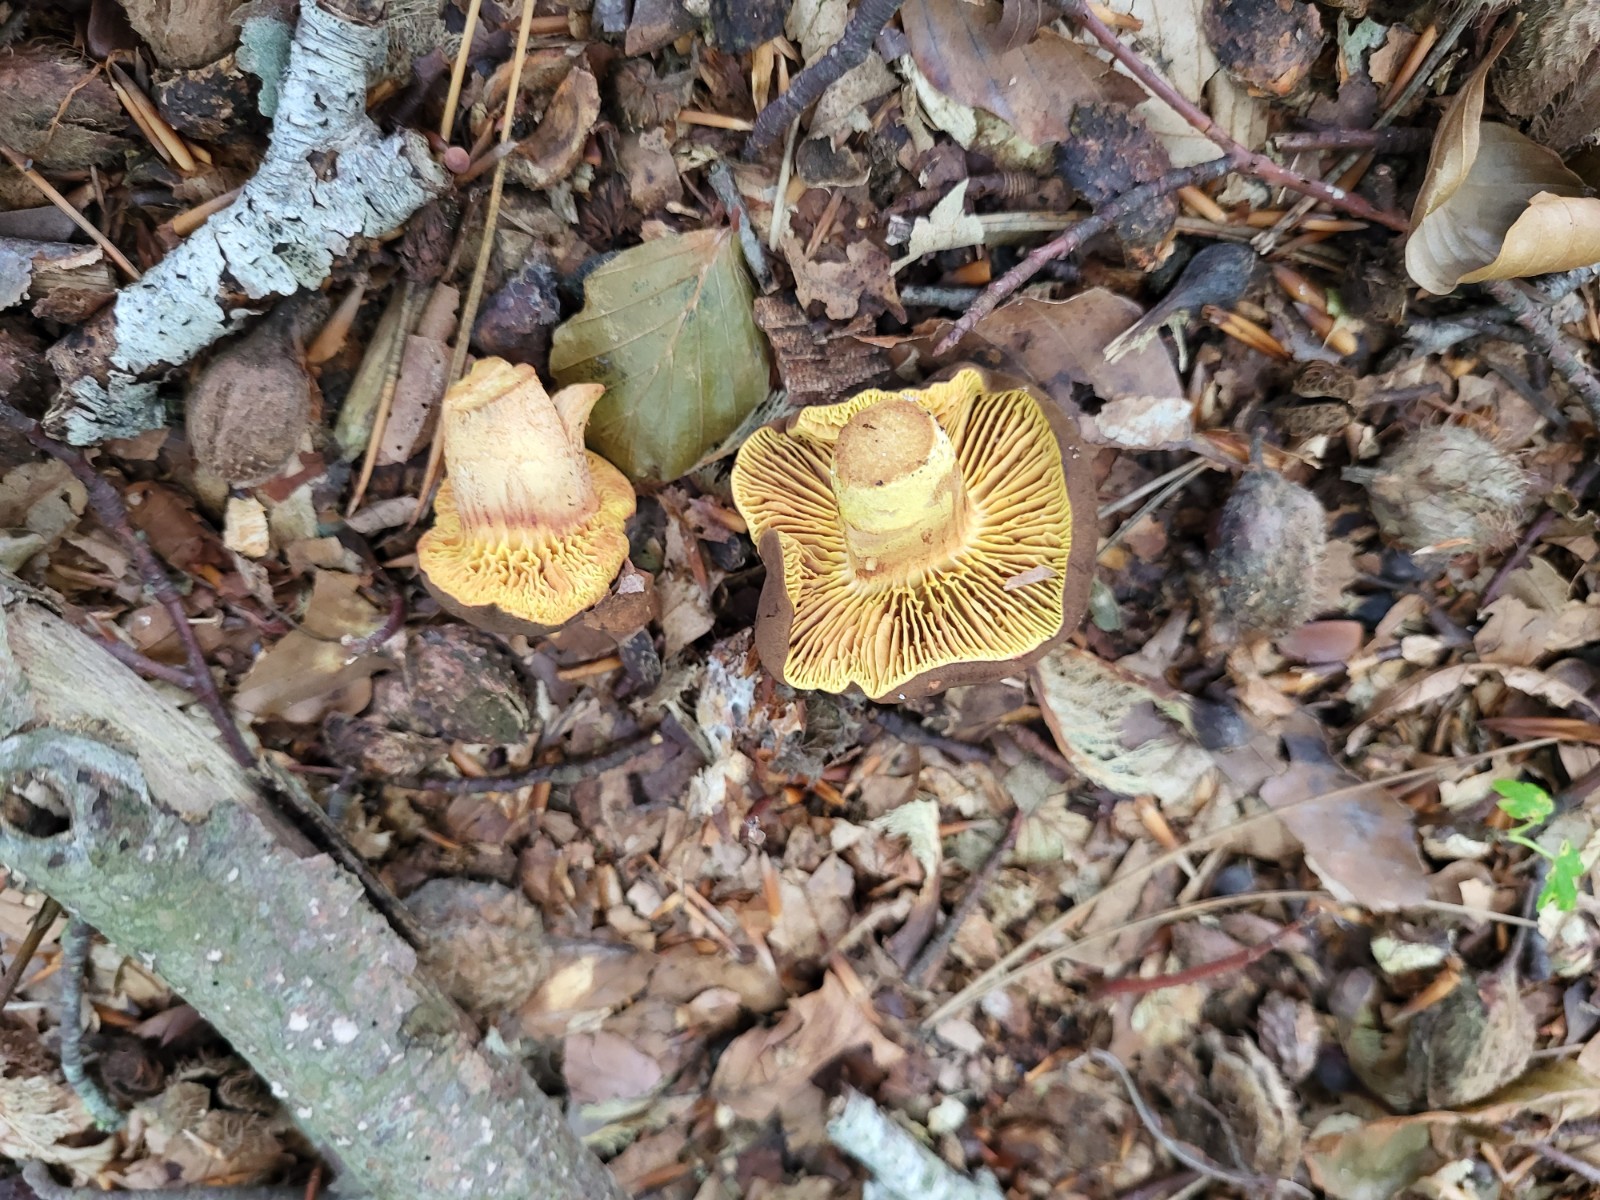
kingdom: Fungi
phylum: Basidiomycota
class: Agaricomycetes
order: Boletales
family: Boletaceae
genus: Phylloporus
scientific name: Phylloporus pelletieri
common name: lamelrørhat
